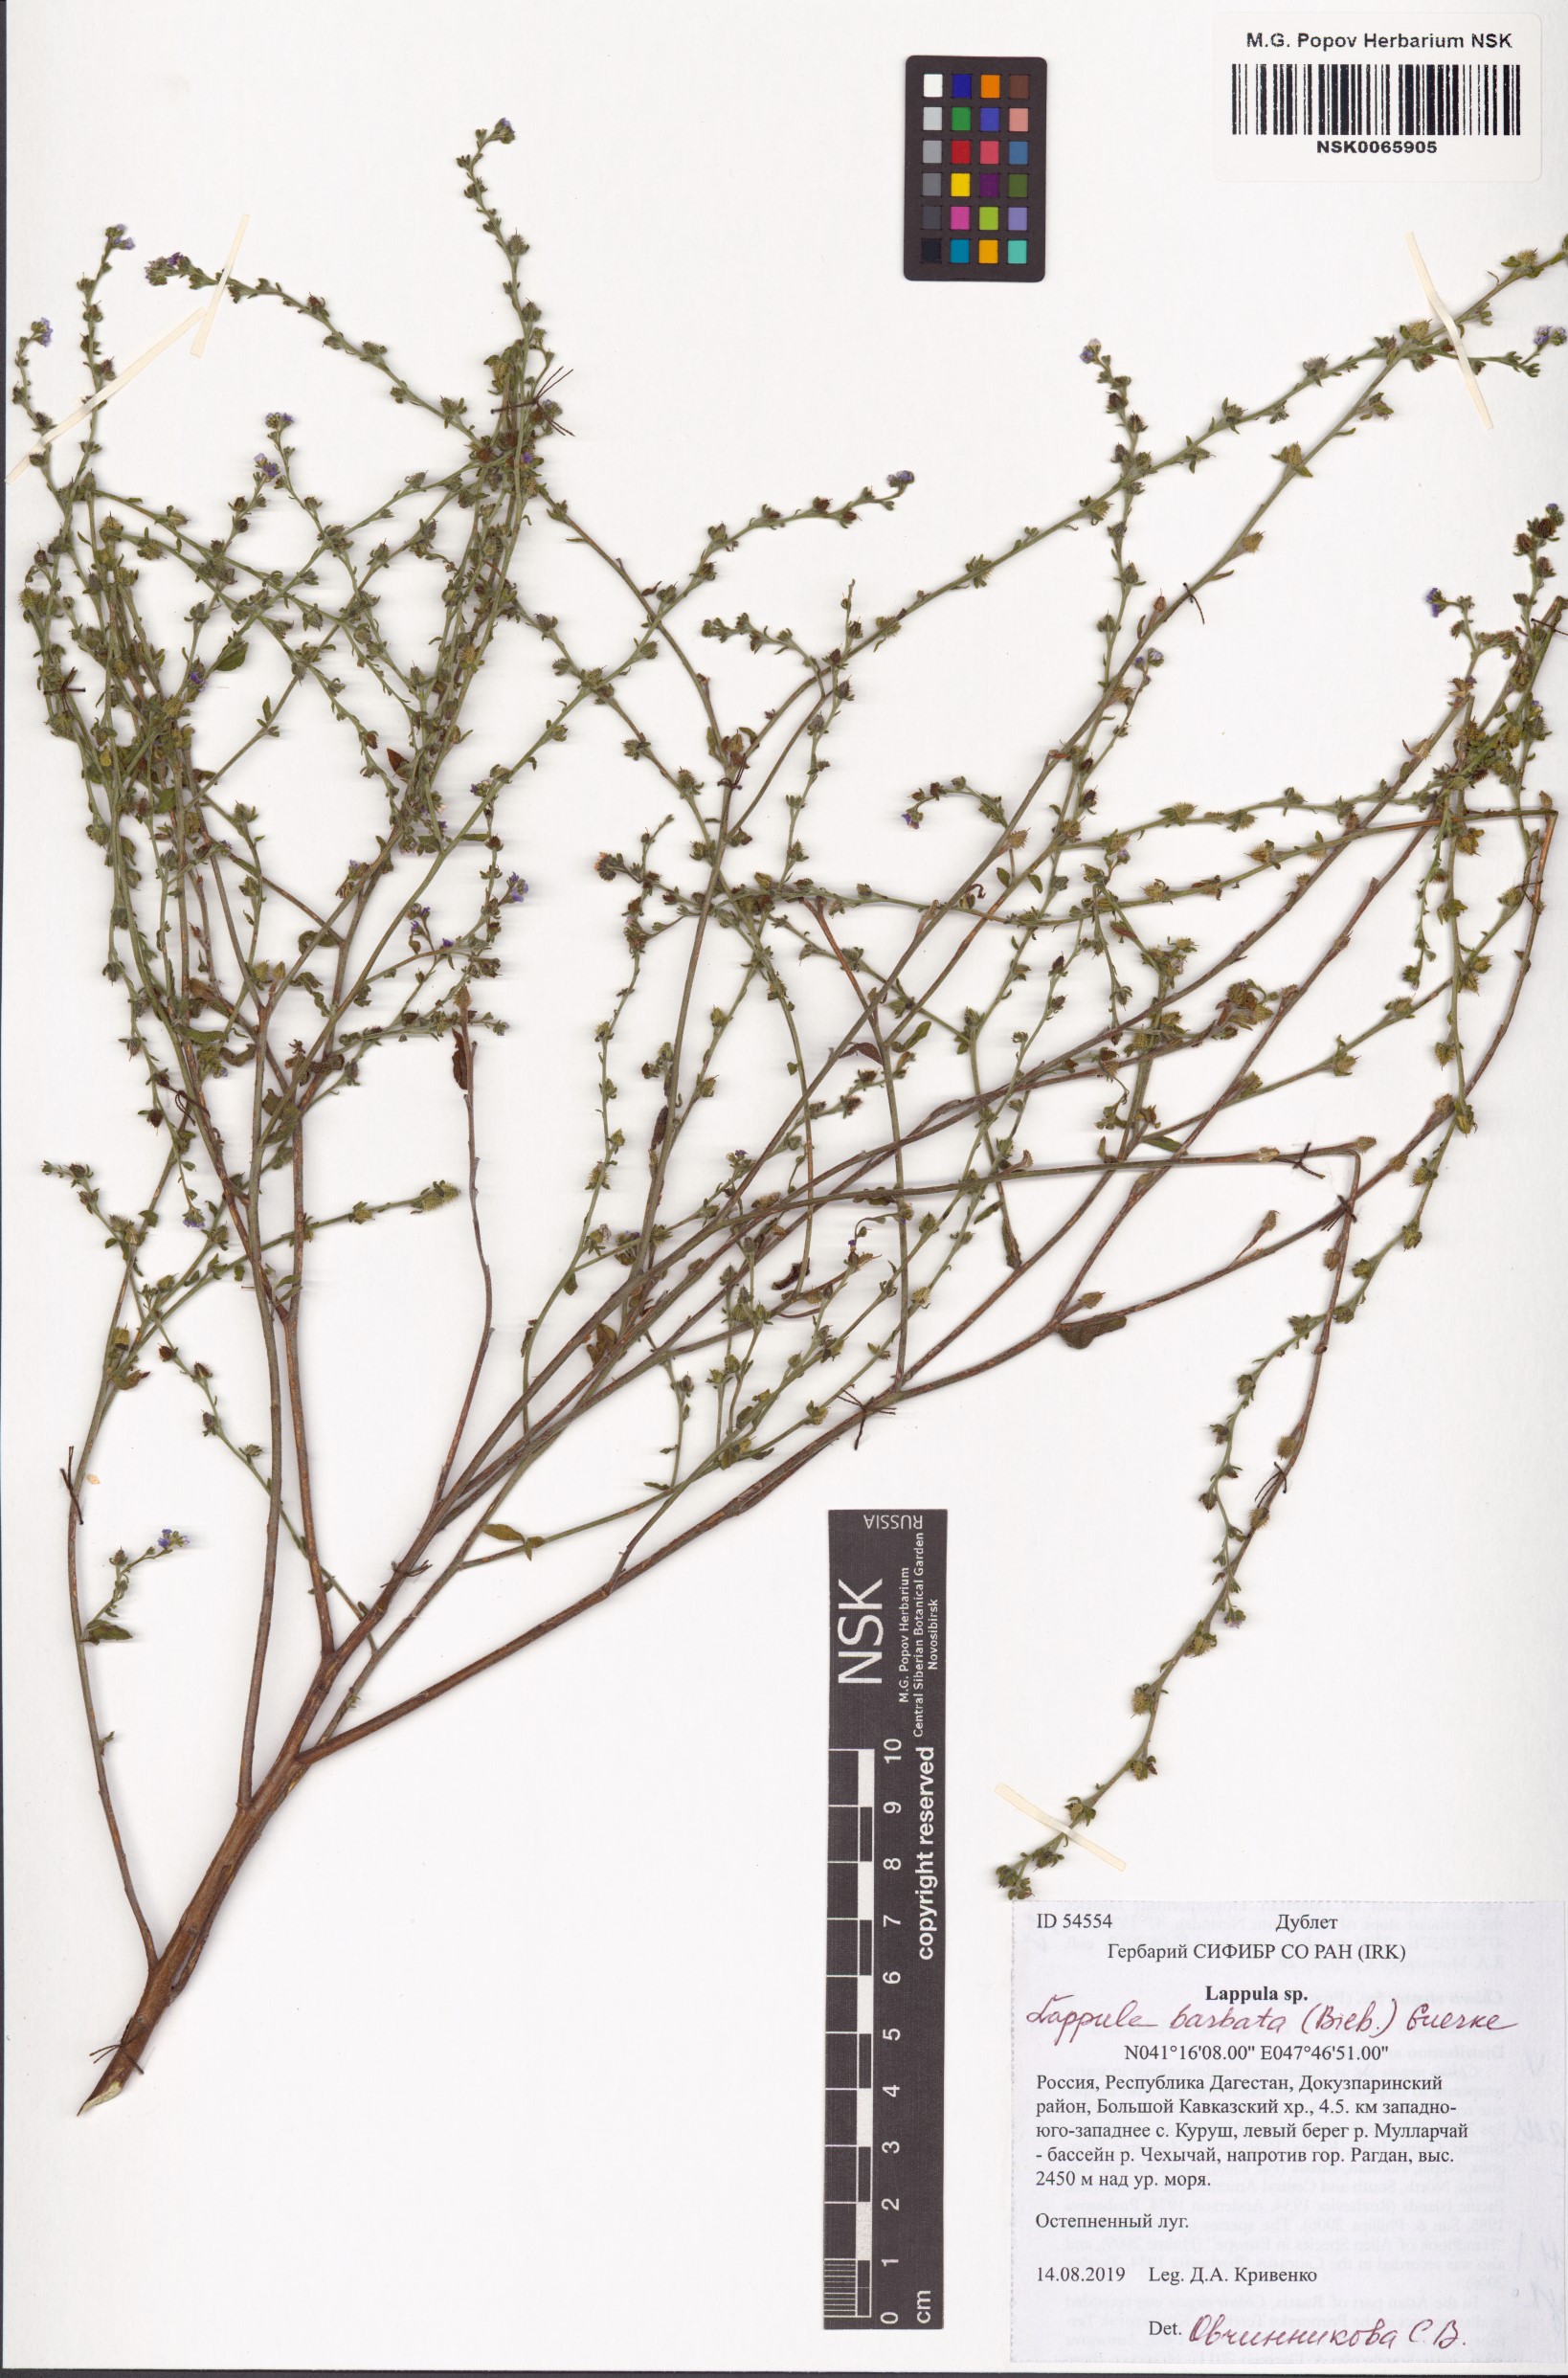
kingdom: Plantae
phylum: Tracheophyta
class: Magnoliopsida
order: Boraginales
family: Boraginaceae
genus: Lappula
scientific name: Lappula barbata
